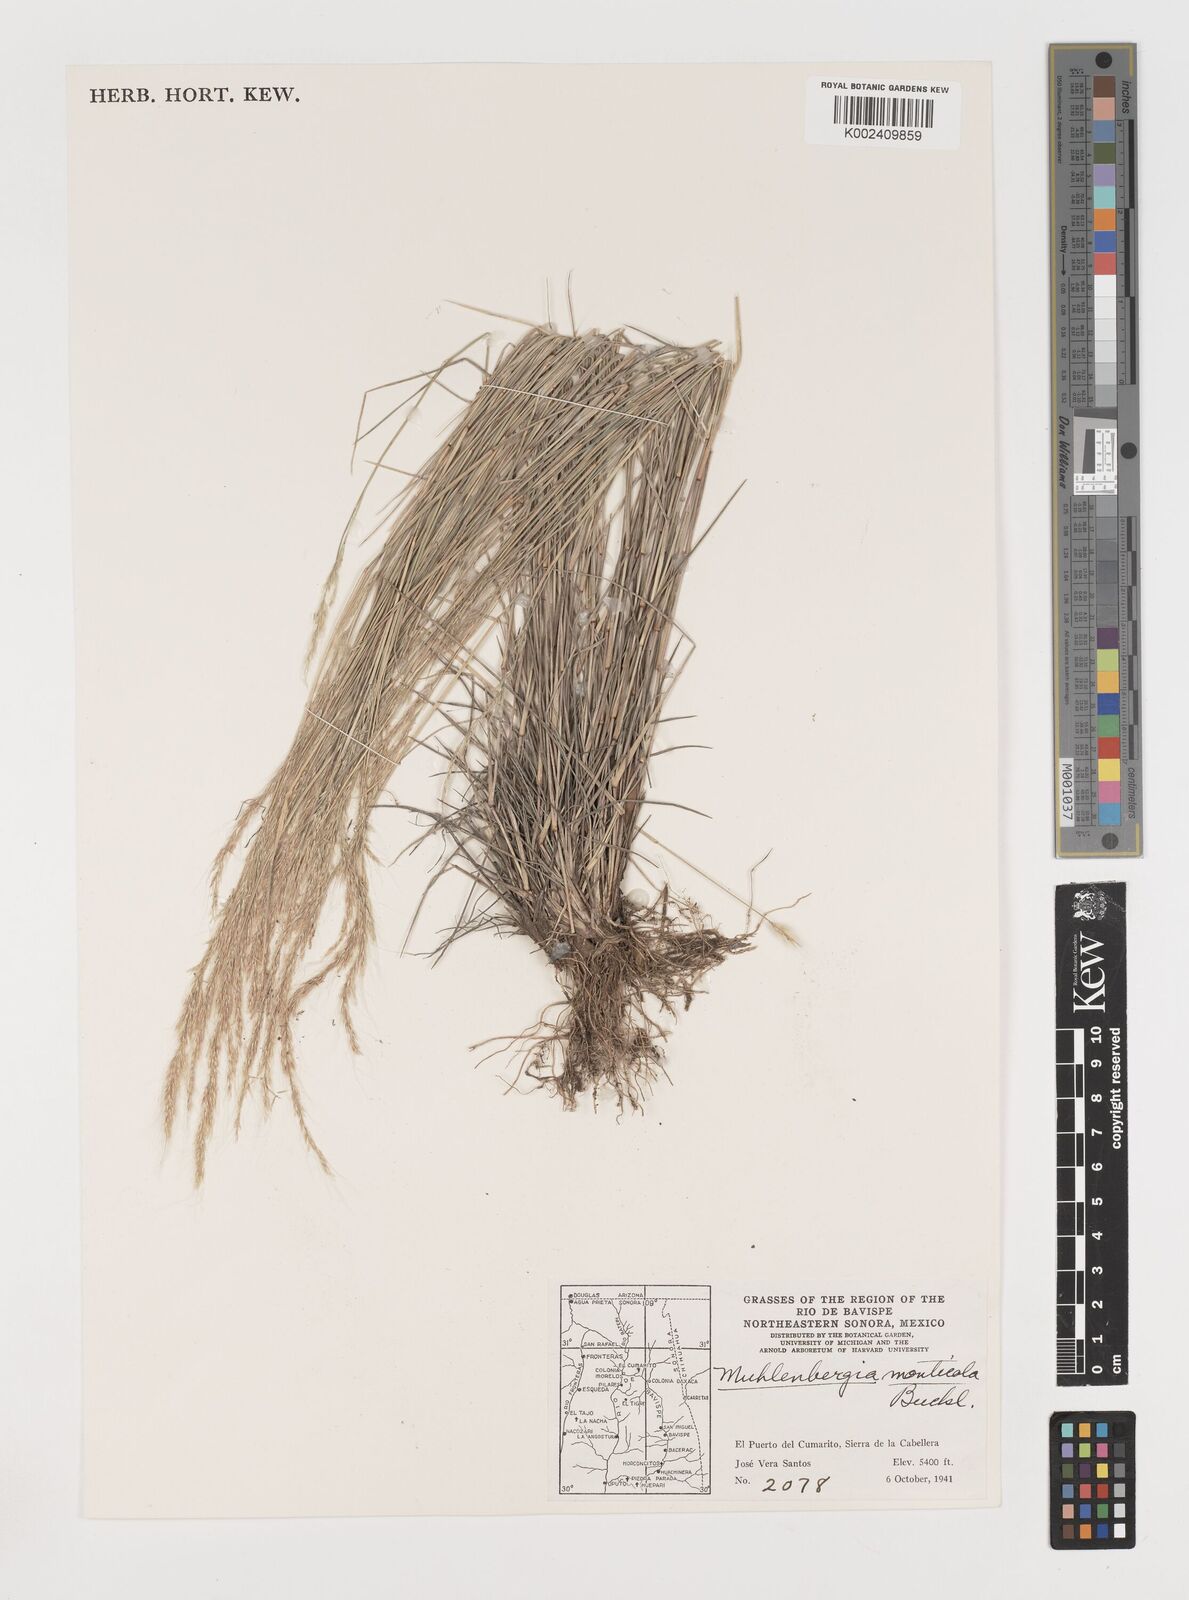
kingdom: Plantae
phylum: Tracheophyta
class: Liliopsida
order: Poales
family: Poaceae
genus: Muhlenbergia
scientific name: Muhlenbergia tenuifolia
